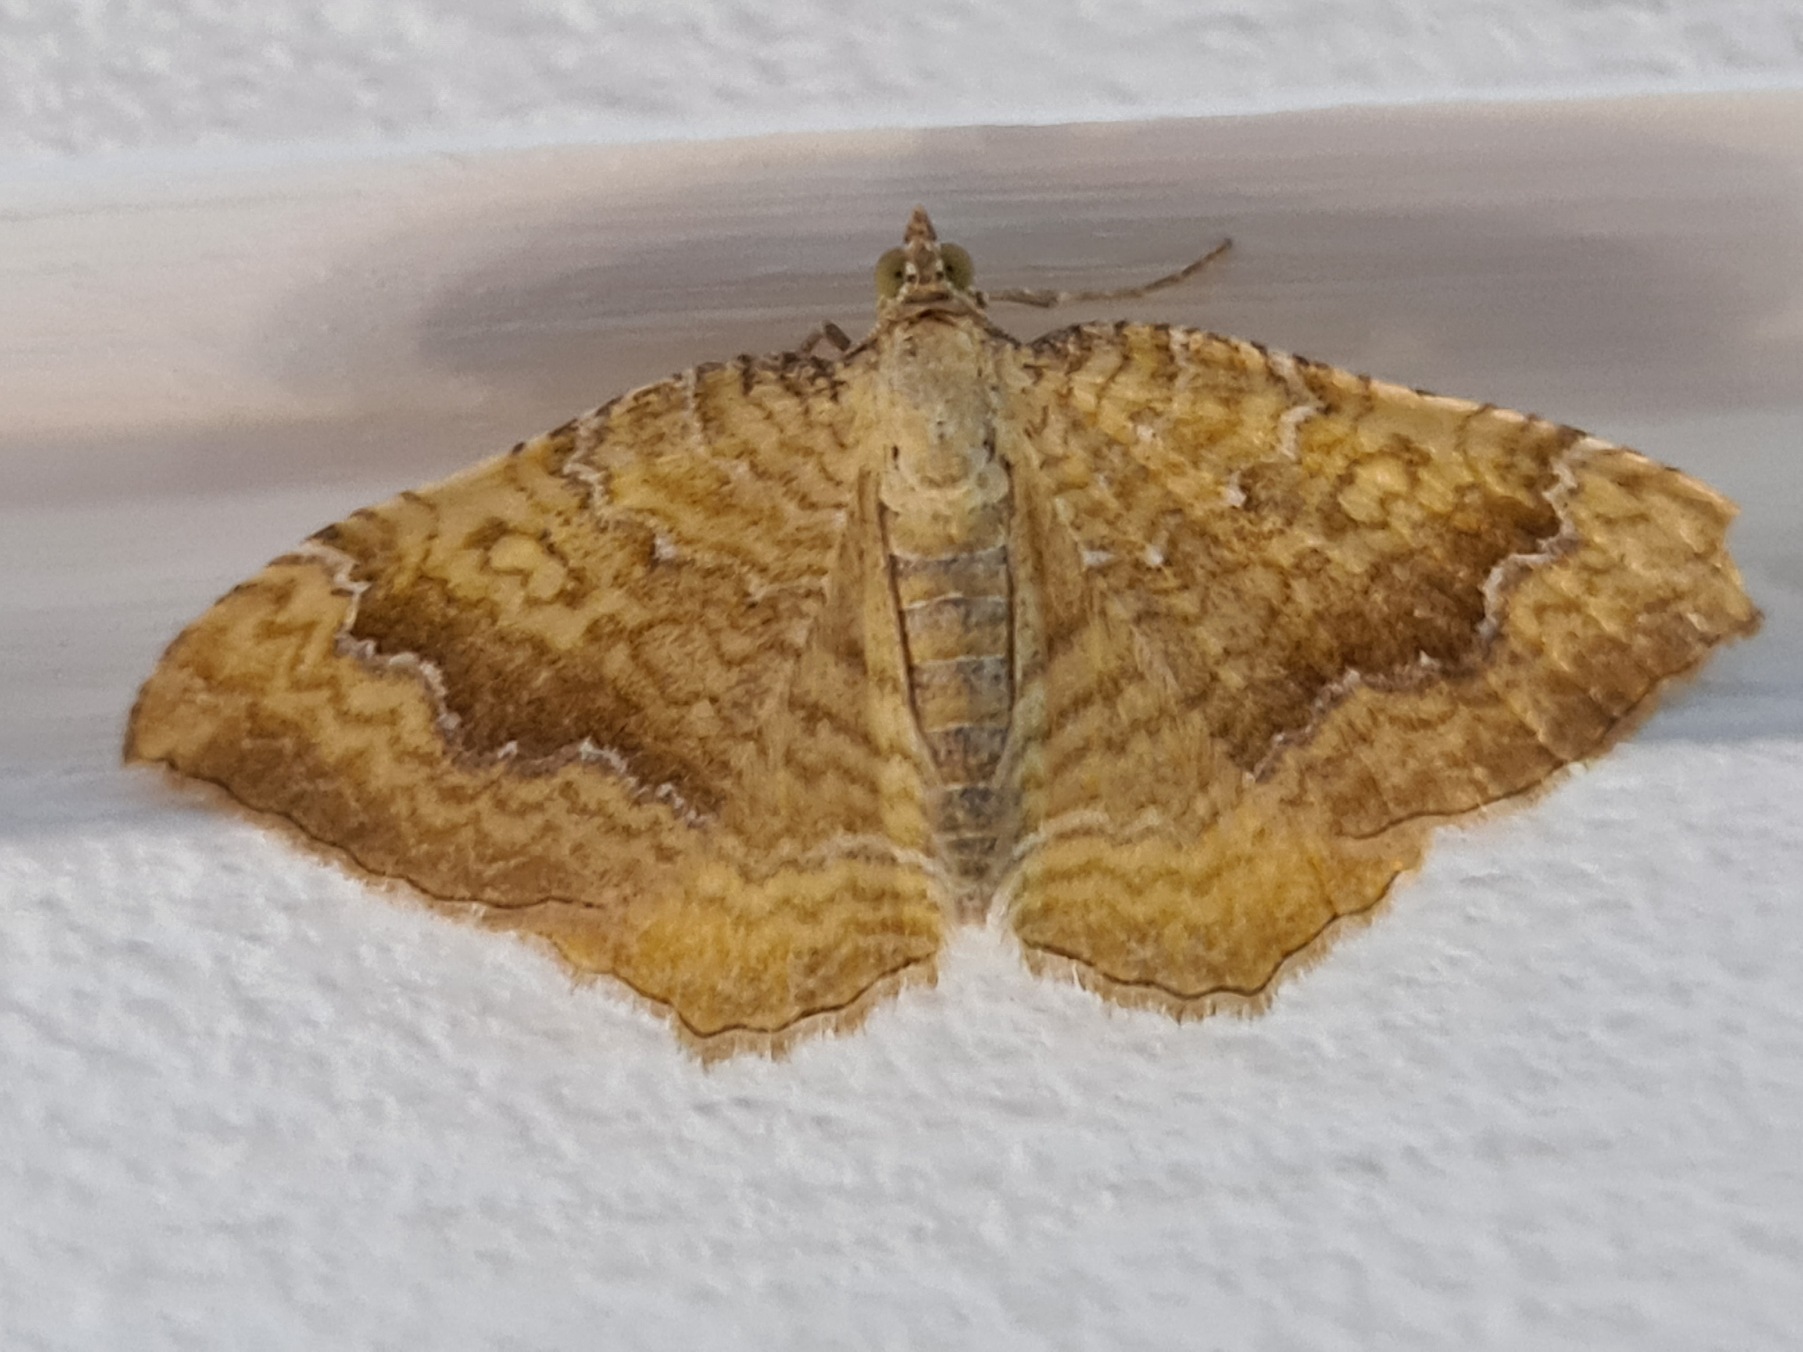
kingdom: Animalia
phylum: Arthropoda
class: Insecta
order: Lepidoptera
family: Geometridae
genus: Camptogramma
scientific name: Camptogramma bilineata
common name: Okkergul bladmåler
